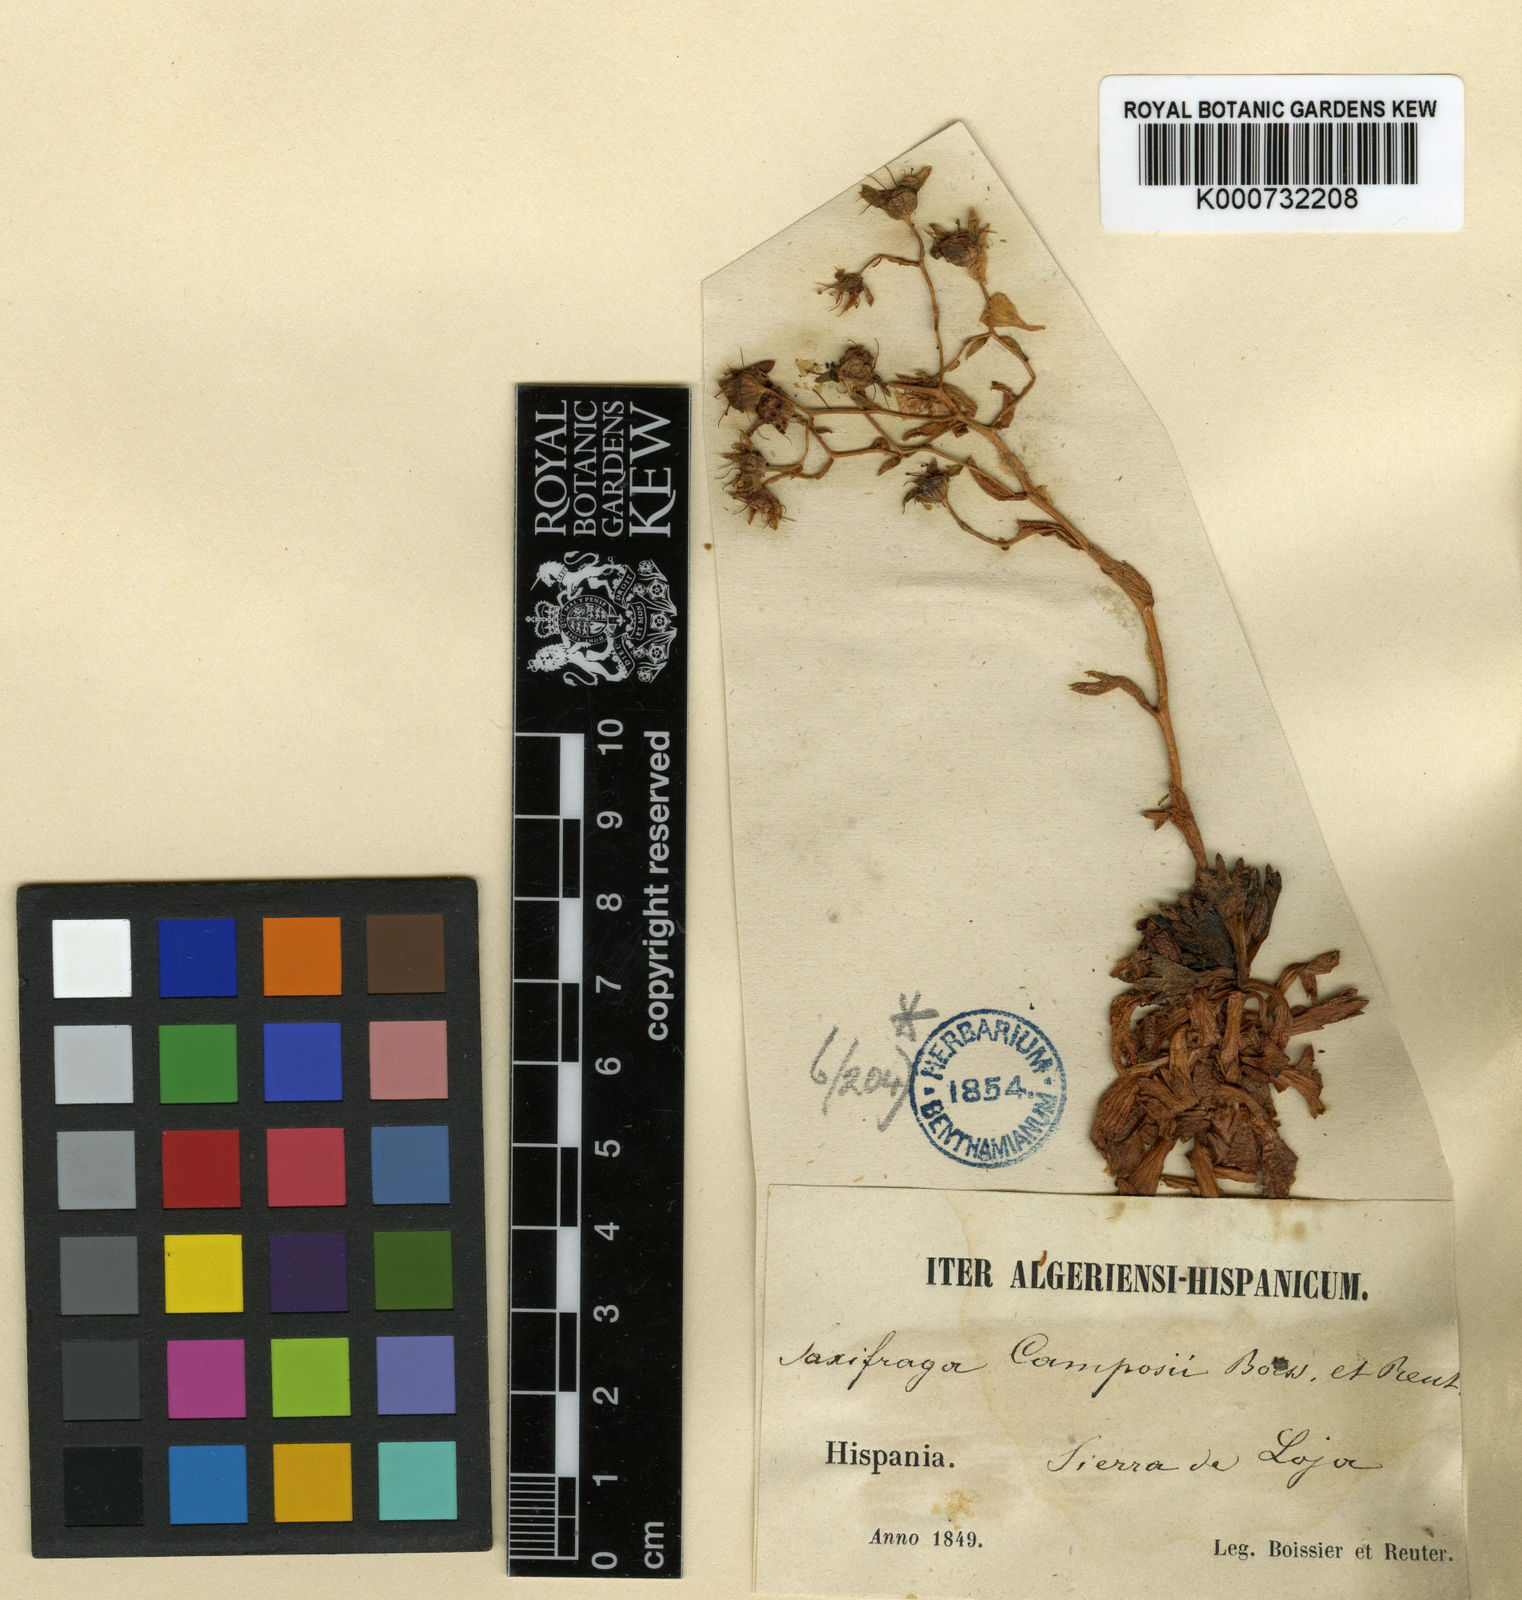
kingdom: Plantae
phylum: Tracheophyta
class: Magnoliopsida
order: Saxifragales
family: Saxifragaceae
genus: Saxifraga
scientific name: Saxifraga camposii
